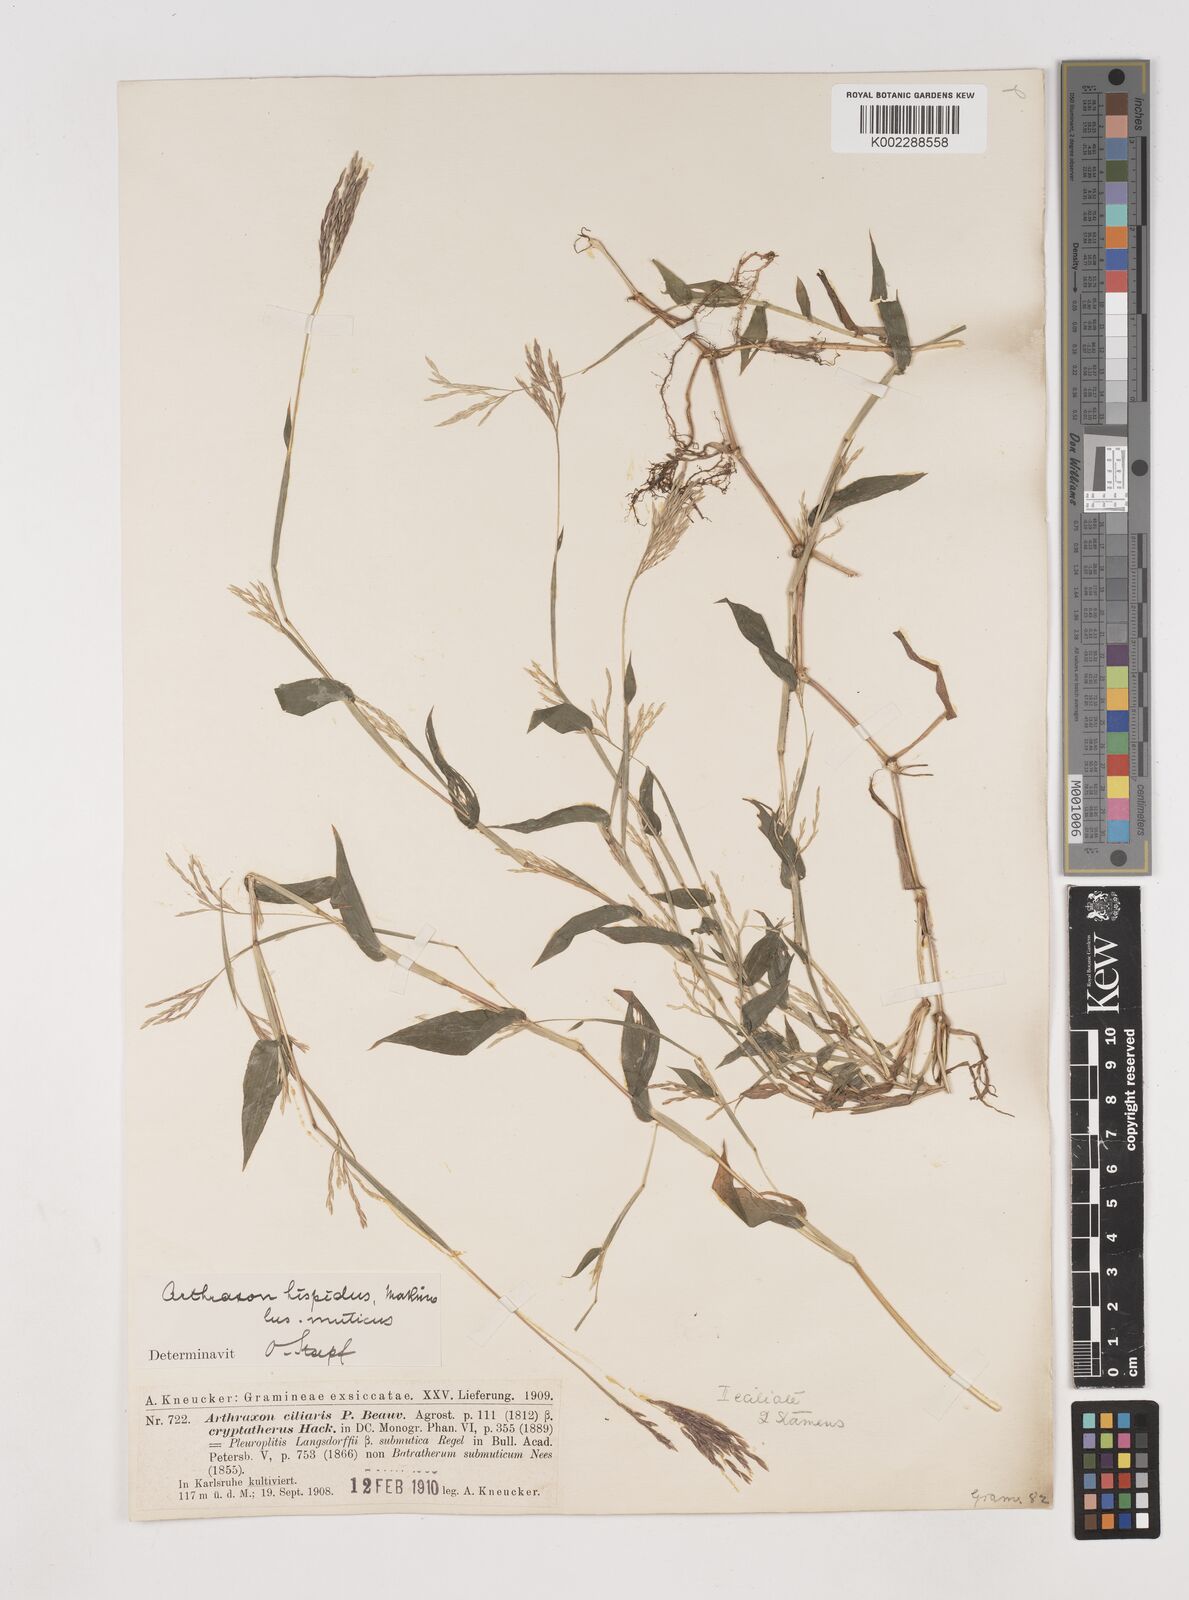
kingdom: Plantae
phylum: Tracheophyta
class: Liliopsida
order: Poales
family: Poaceae
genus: Arthraxon
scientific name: Arthraxon hispidus
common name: Small carpgrass
